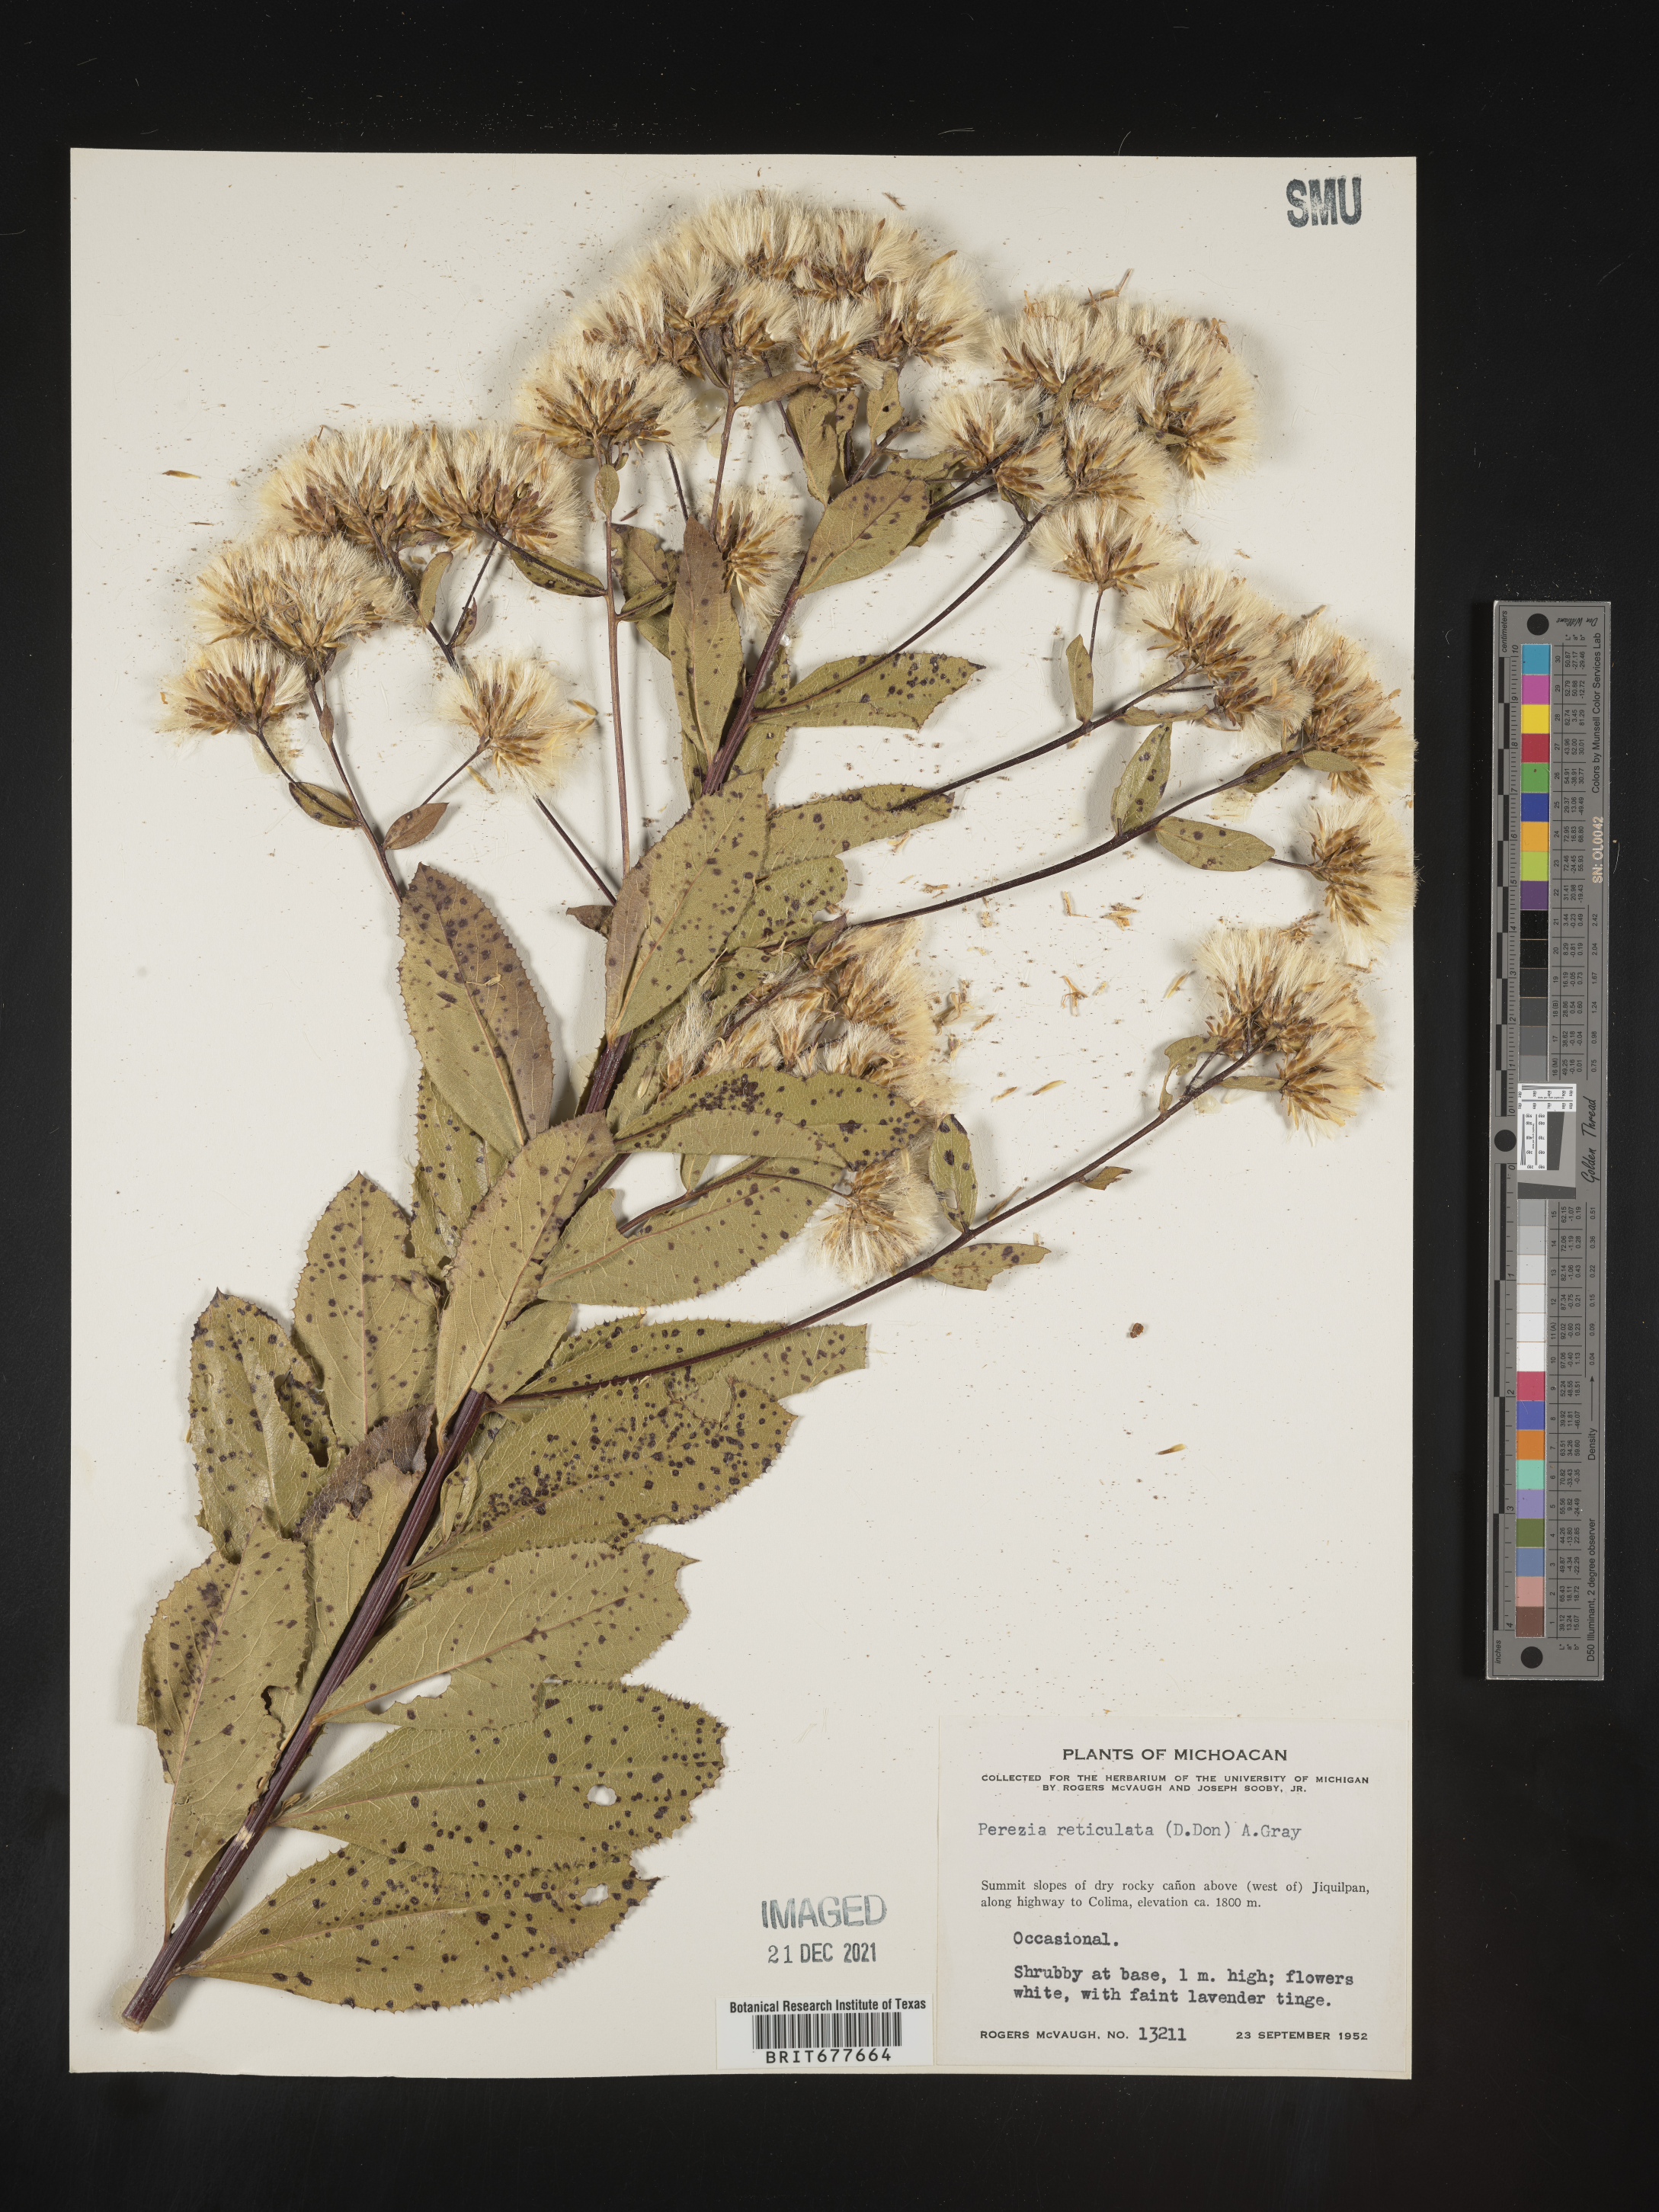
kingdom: Plantae
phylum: Tracheophyta
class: Magnoliopsida
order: Asterales
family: Asteraceae
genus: Perezia
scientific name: Perezia
